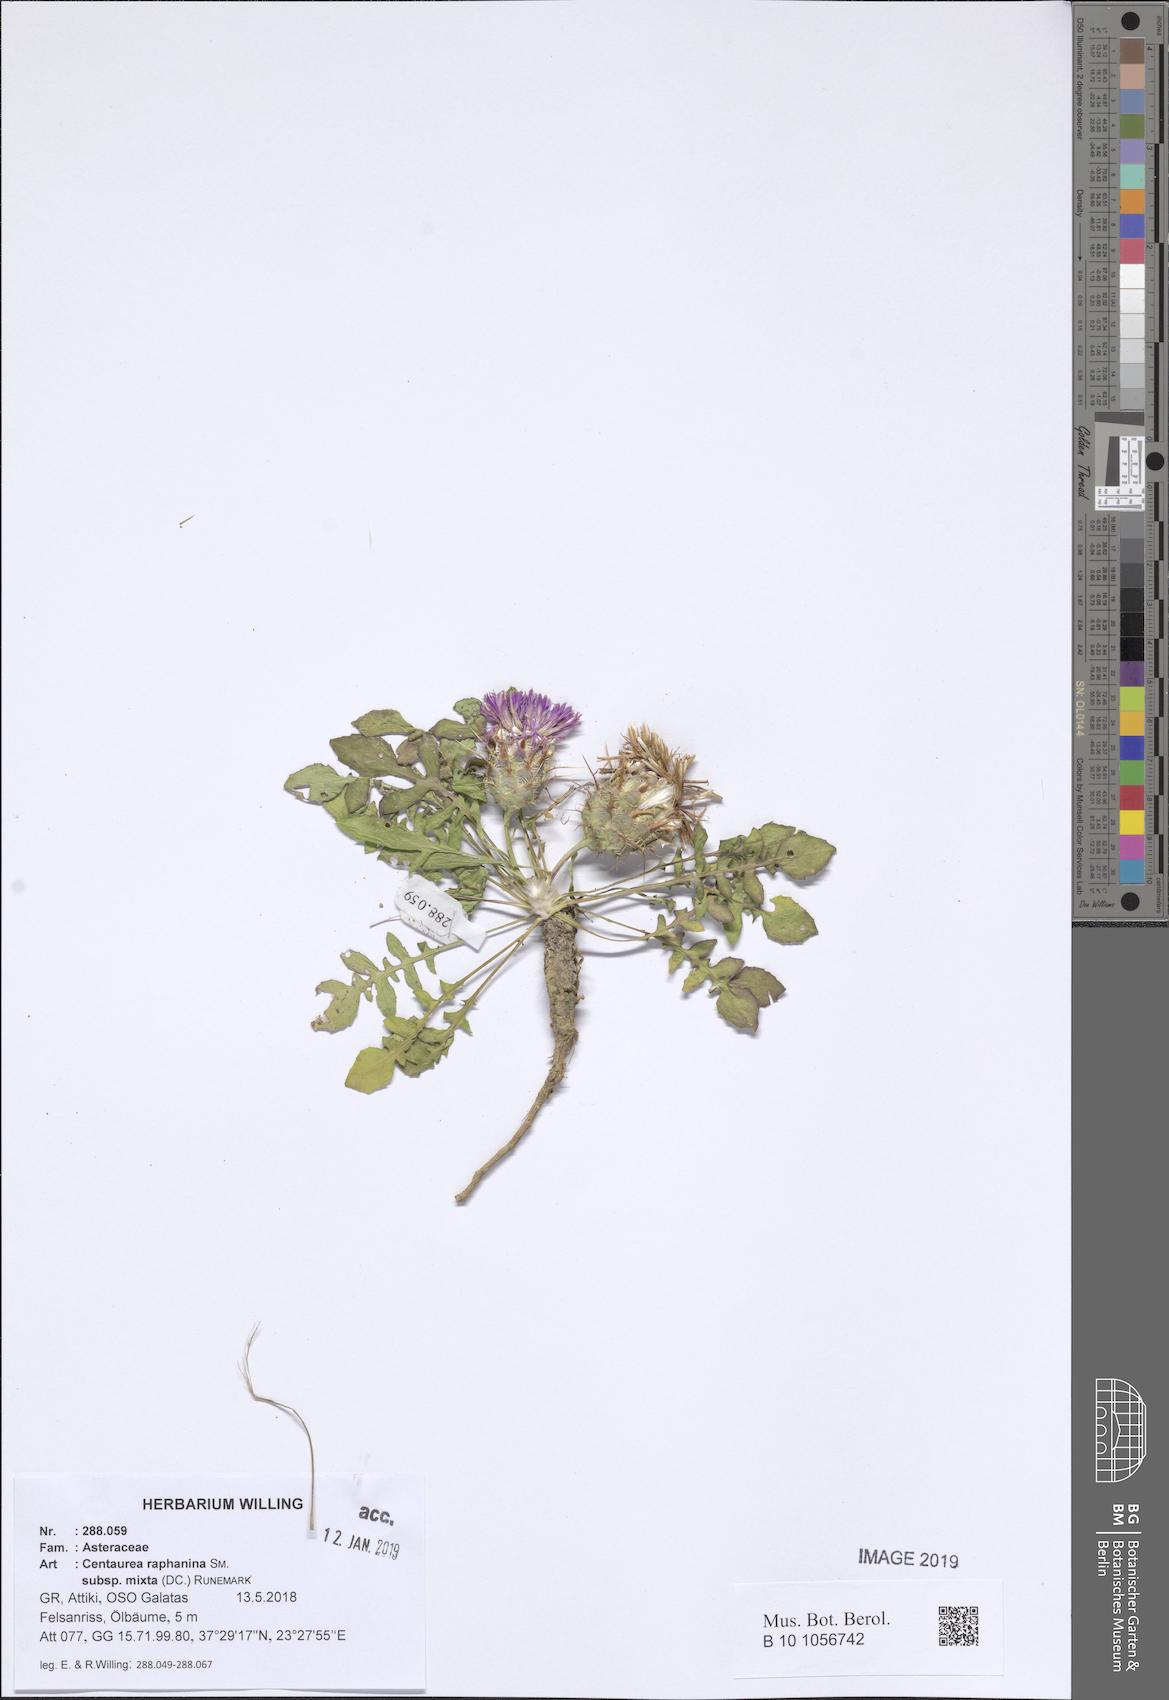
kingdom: Plantae
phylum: Tracheophyta
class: Magnoliopsida
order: Asterales
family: Asteraceae
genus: Centaurea
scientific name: Centaurea raphanina
